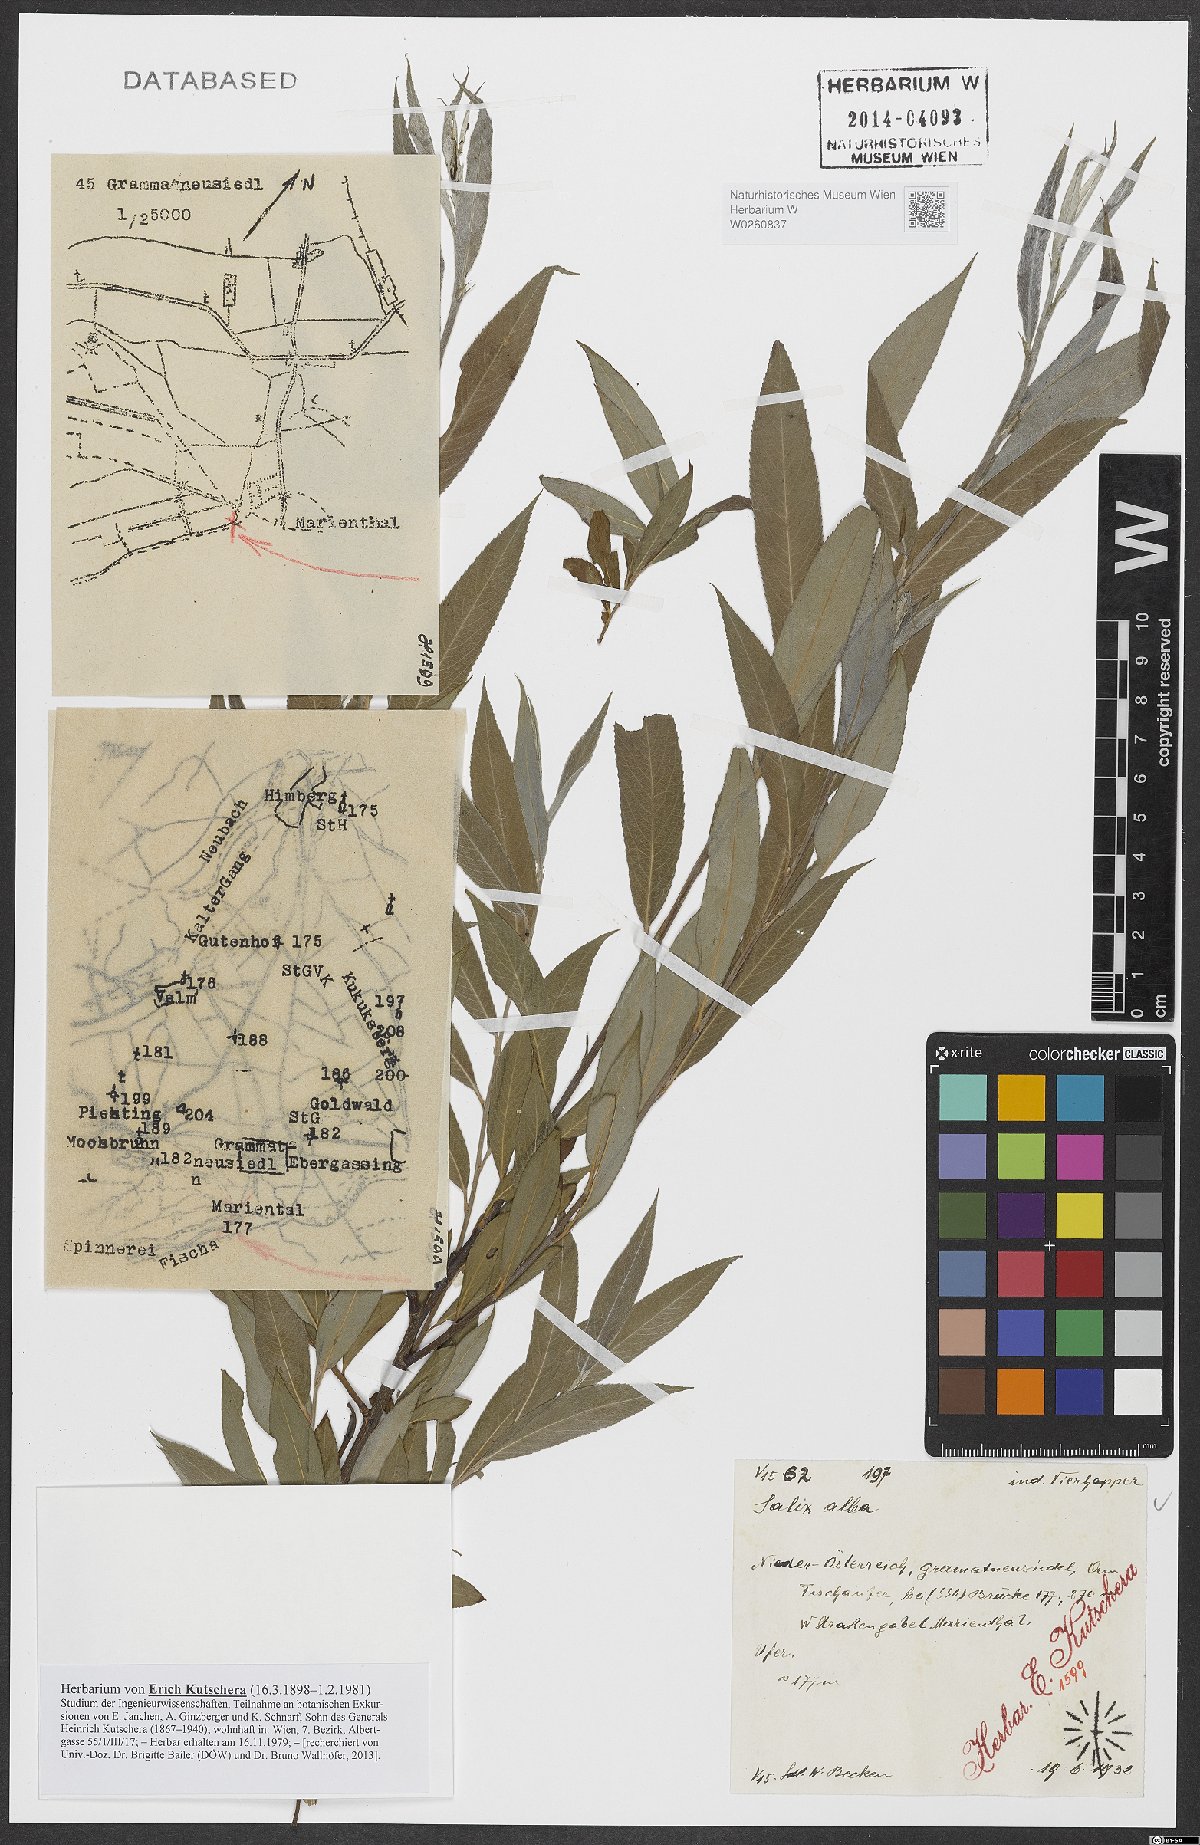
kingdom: Plantae
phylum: Tracheophyta
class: Magnoliopsida
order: Malpighiales
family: Salicaceae
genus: Salix
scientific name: Salix alba
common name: White willow
